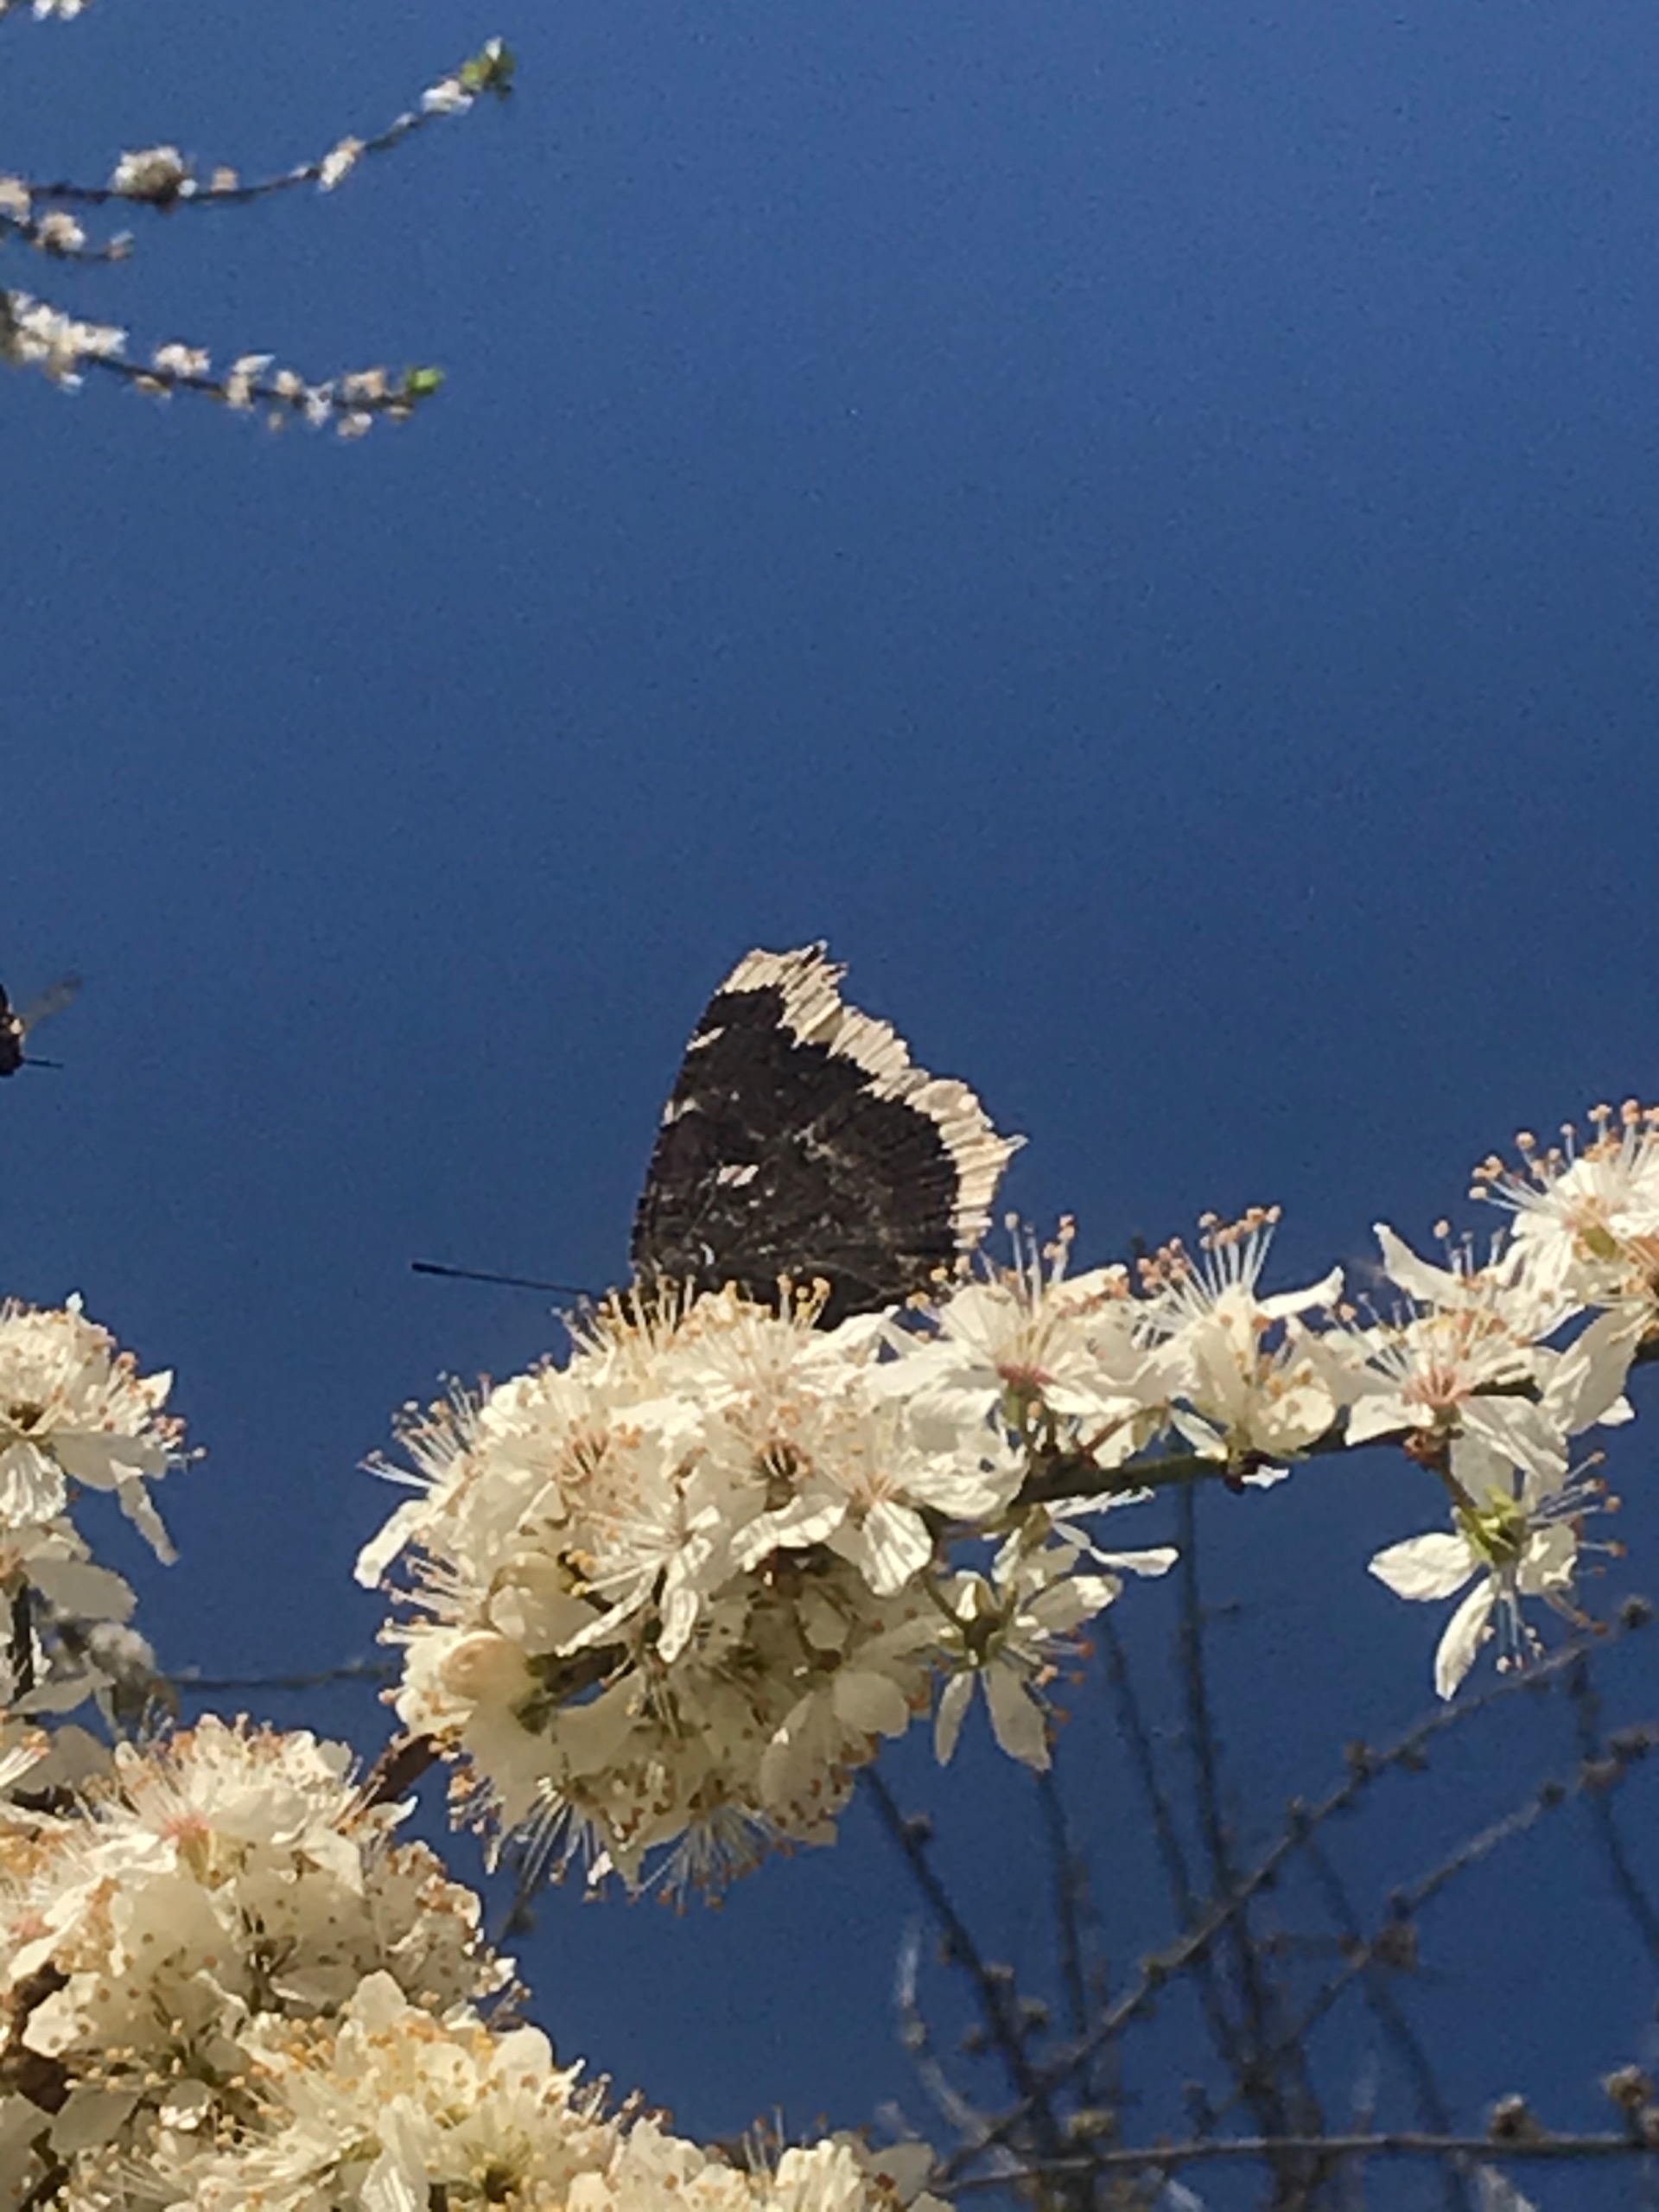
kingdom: Animalia
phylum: Arthropoda
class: Insecta
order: Lepidoptera
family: Nymphalidae
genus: Nymphalis
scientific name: Nymphalis antiopa
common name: Sørgekåbe
